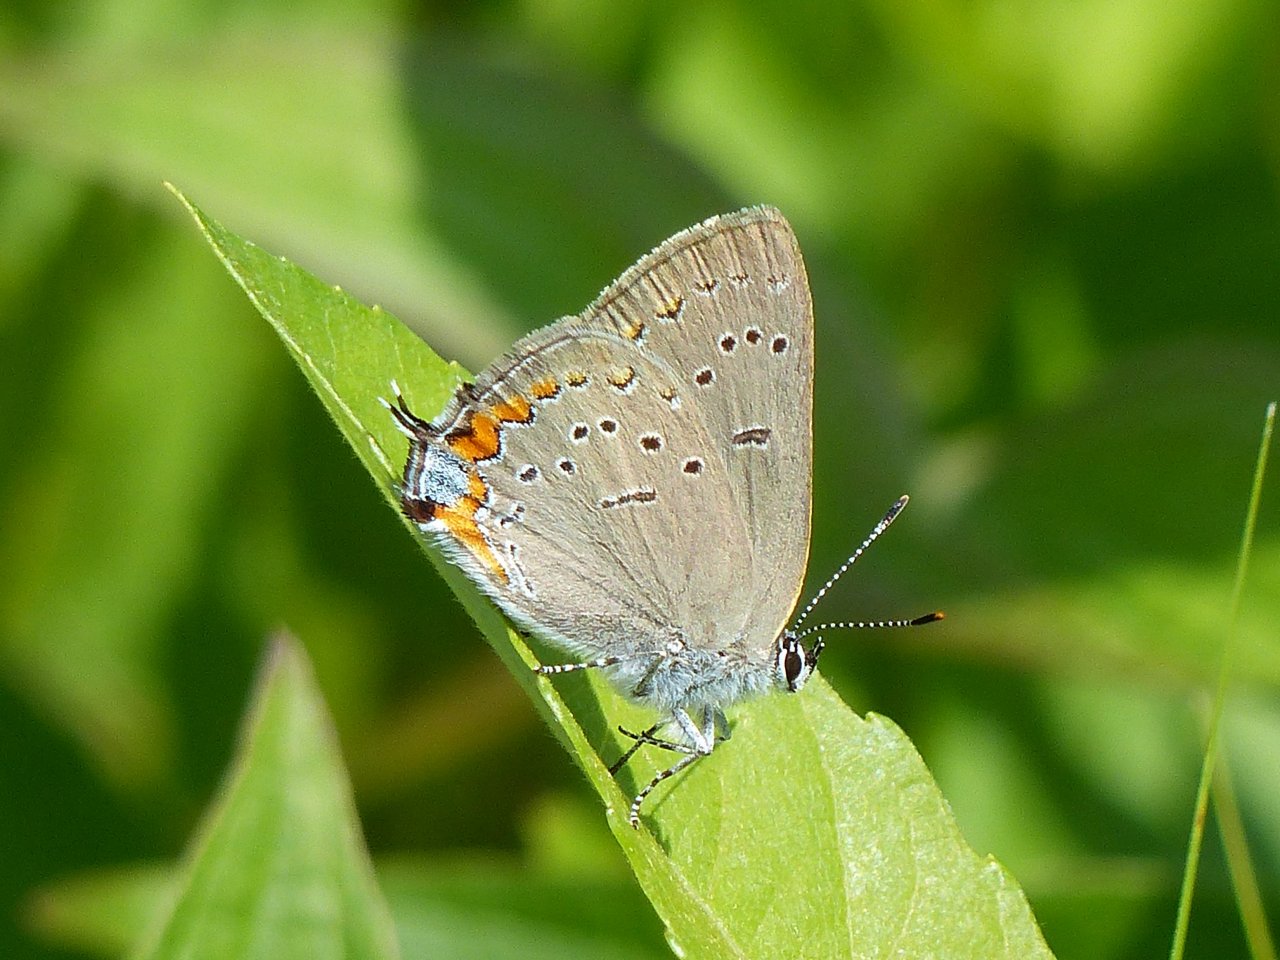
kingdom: Animalia
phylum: Arthropoda
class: Insecta
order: Lepidoptera
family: Lycaenidae
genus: Strymon
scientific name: Strymon acadica
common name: Acadian Hairstreak
